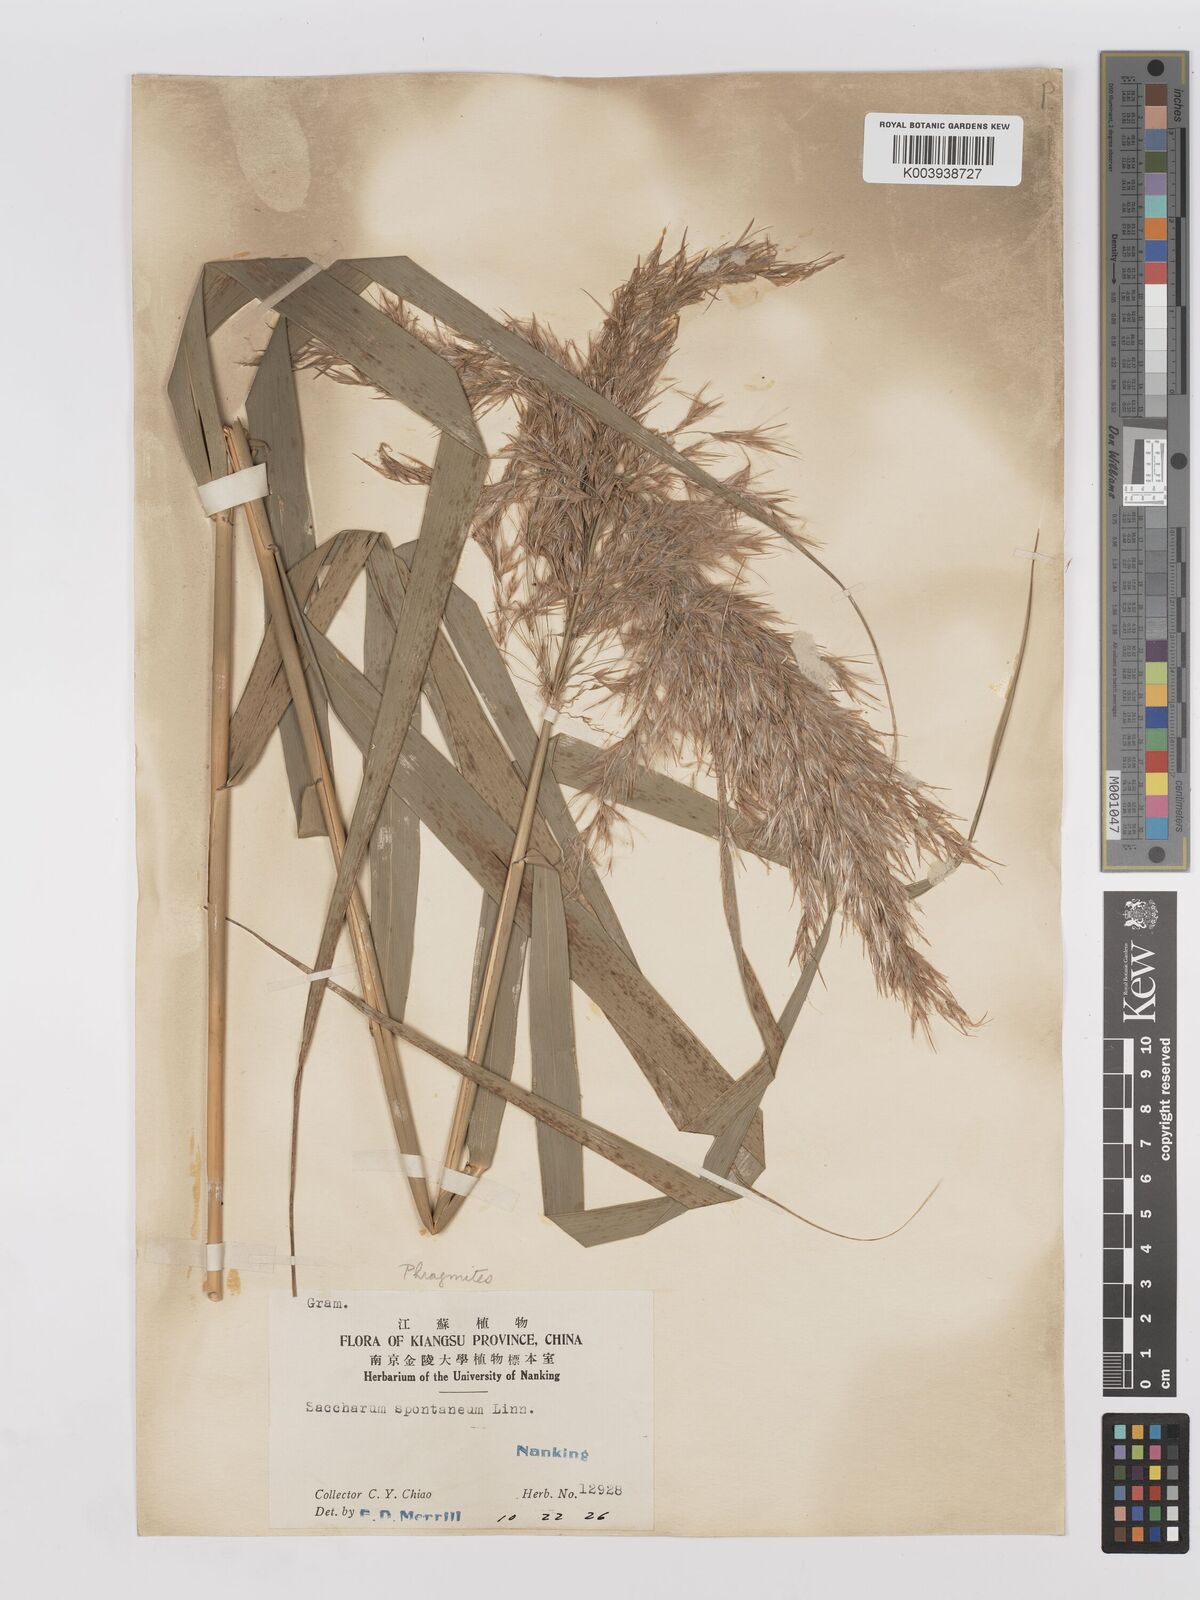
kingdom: Plantae
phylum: Tracheophyta
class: Liliopsida
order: Poales
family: Poaceae
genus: Phragmites
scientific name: Phragmites australis
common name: Common reed
